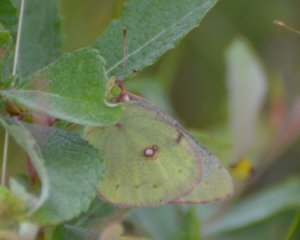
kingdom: Animalia
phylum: Arthropoda
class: Insecta
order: Lepidoptera
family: Pieridae
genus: Colias
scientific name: Colias philodice
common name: Clouded Sulphur
